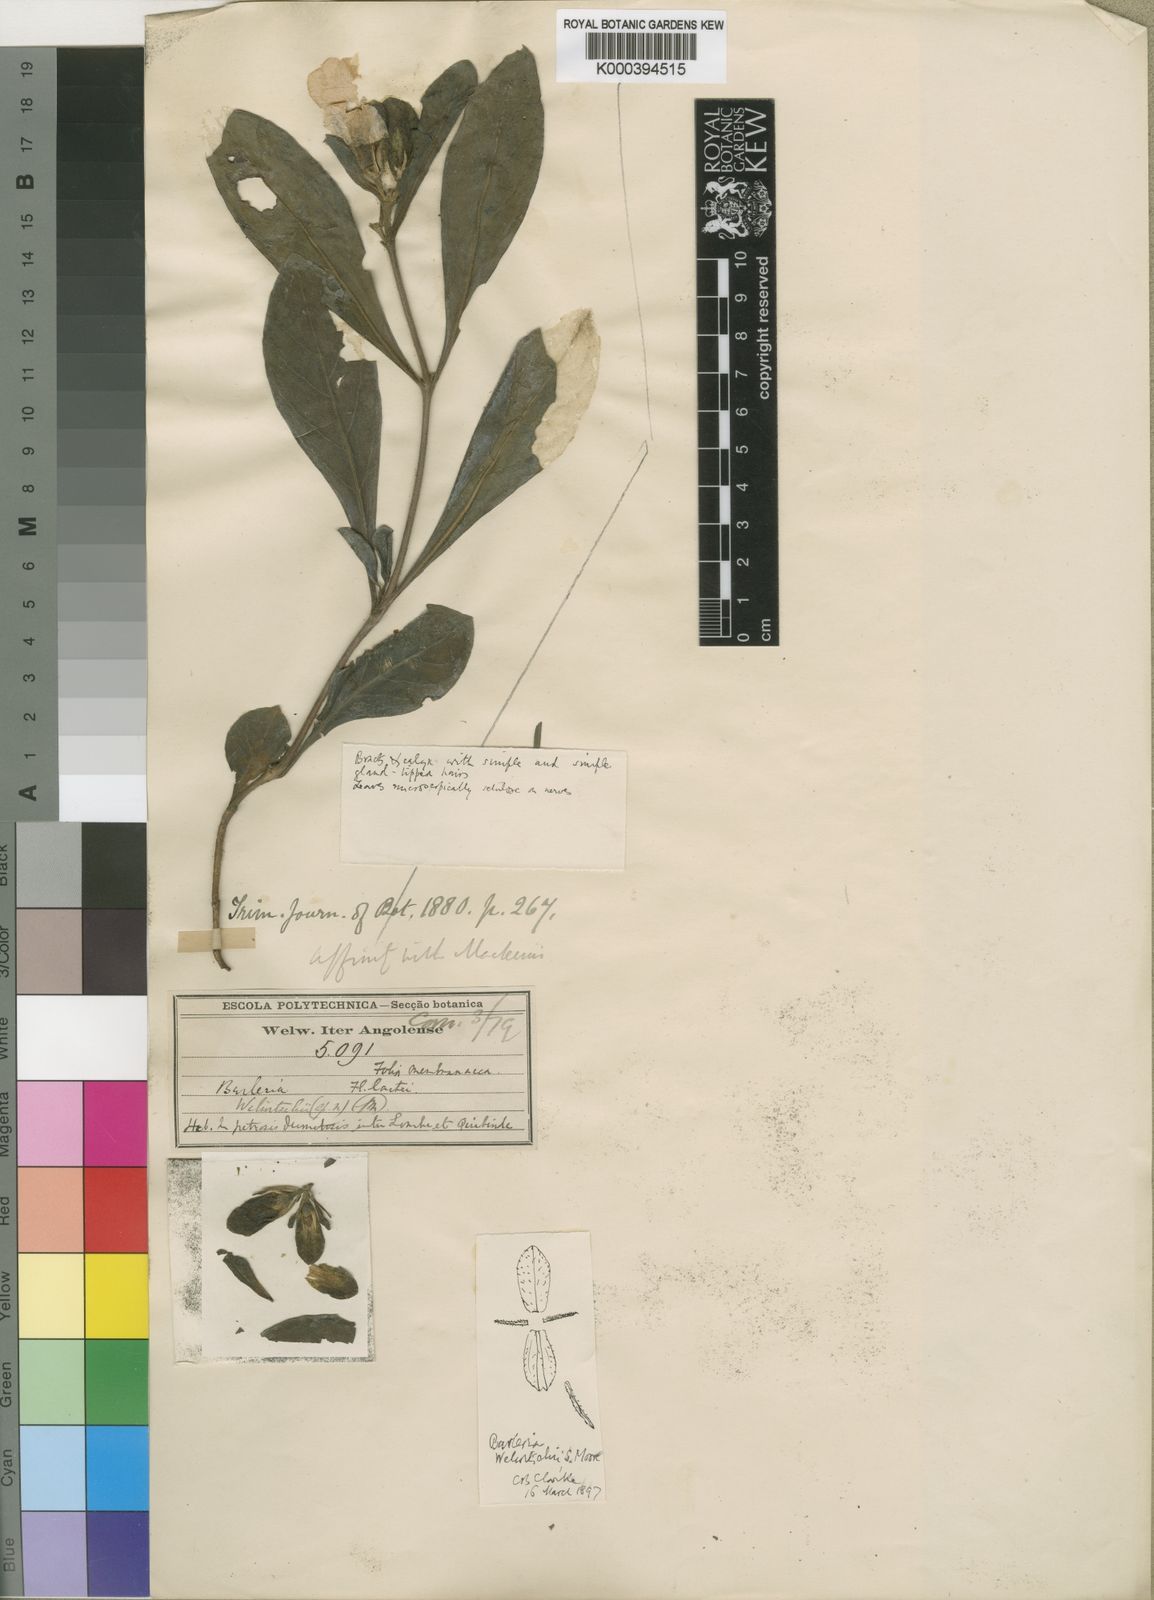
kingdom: Plantae
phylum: Tracheophyta
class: Magnoliopsida
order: Lamiales
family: Acanthaceae
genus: Barleria
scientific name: Barleria mackenii
